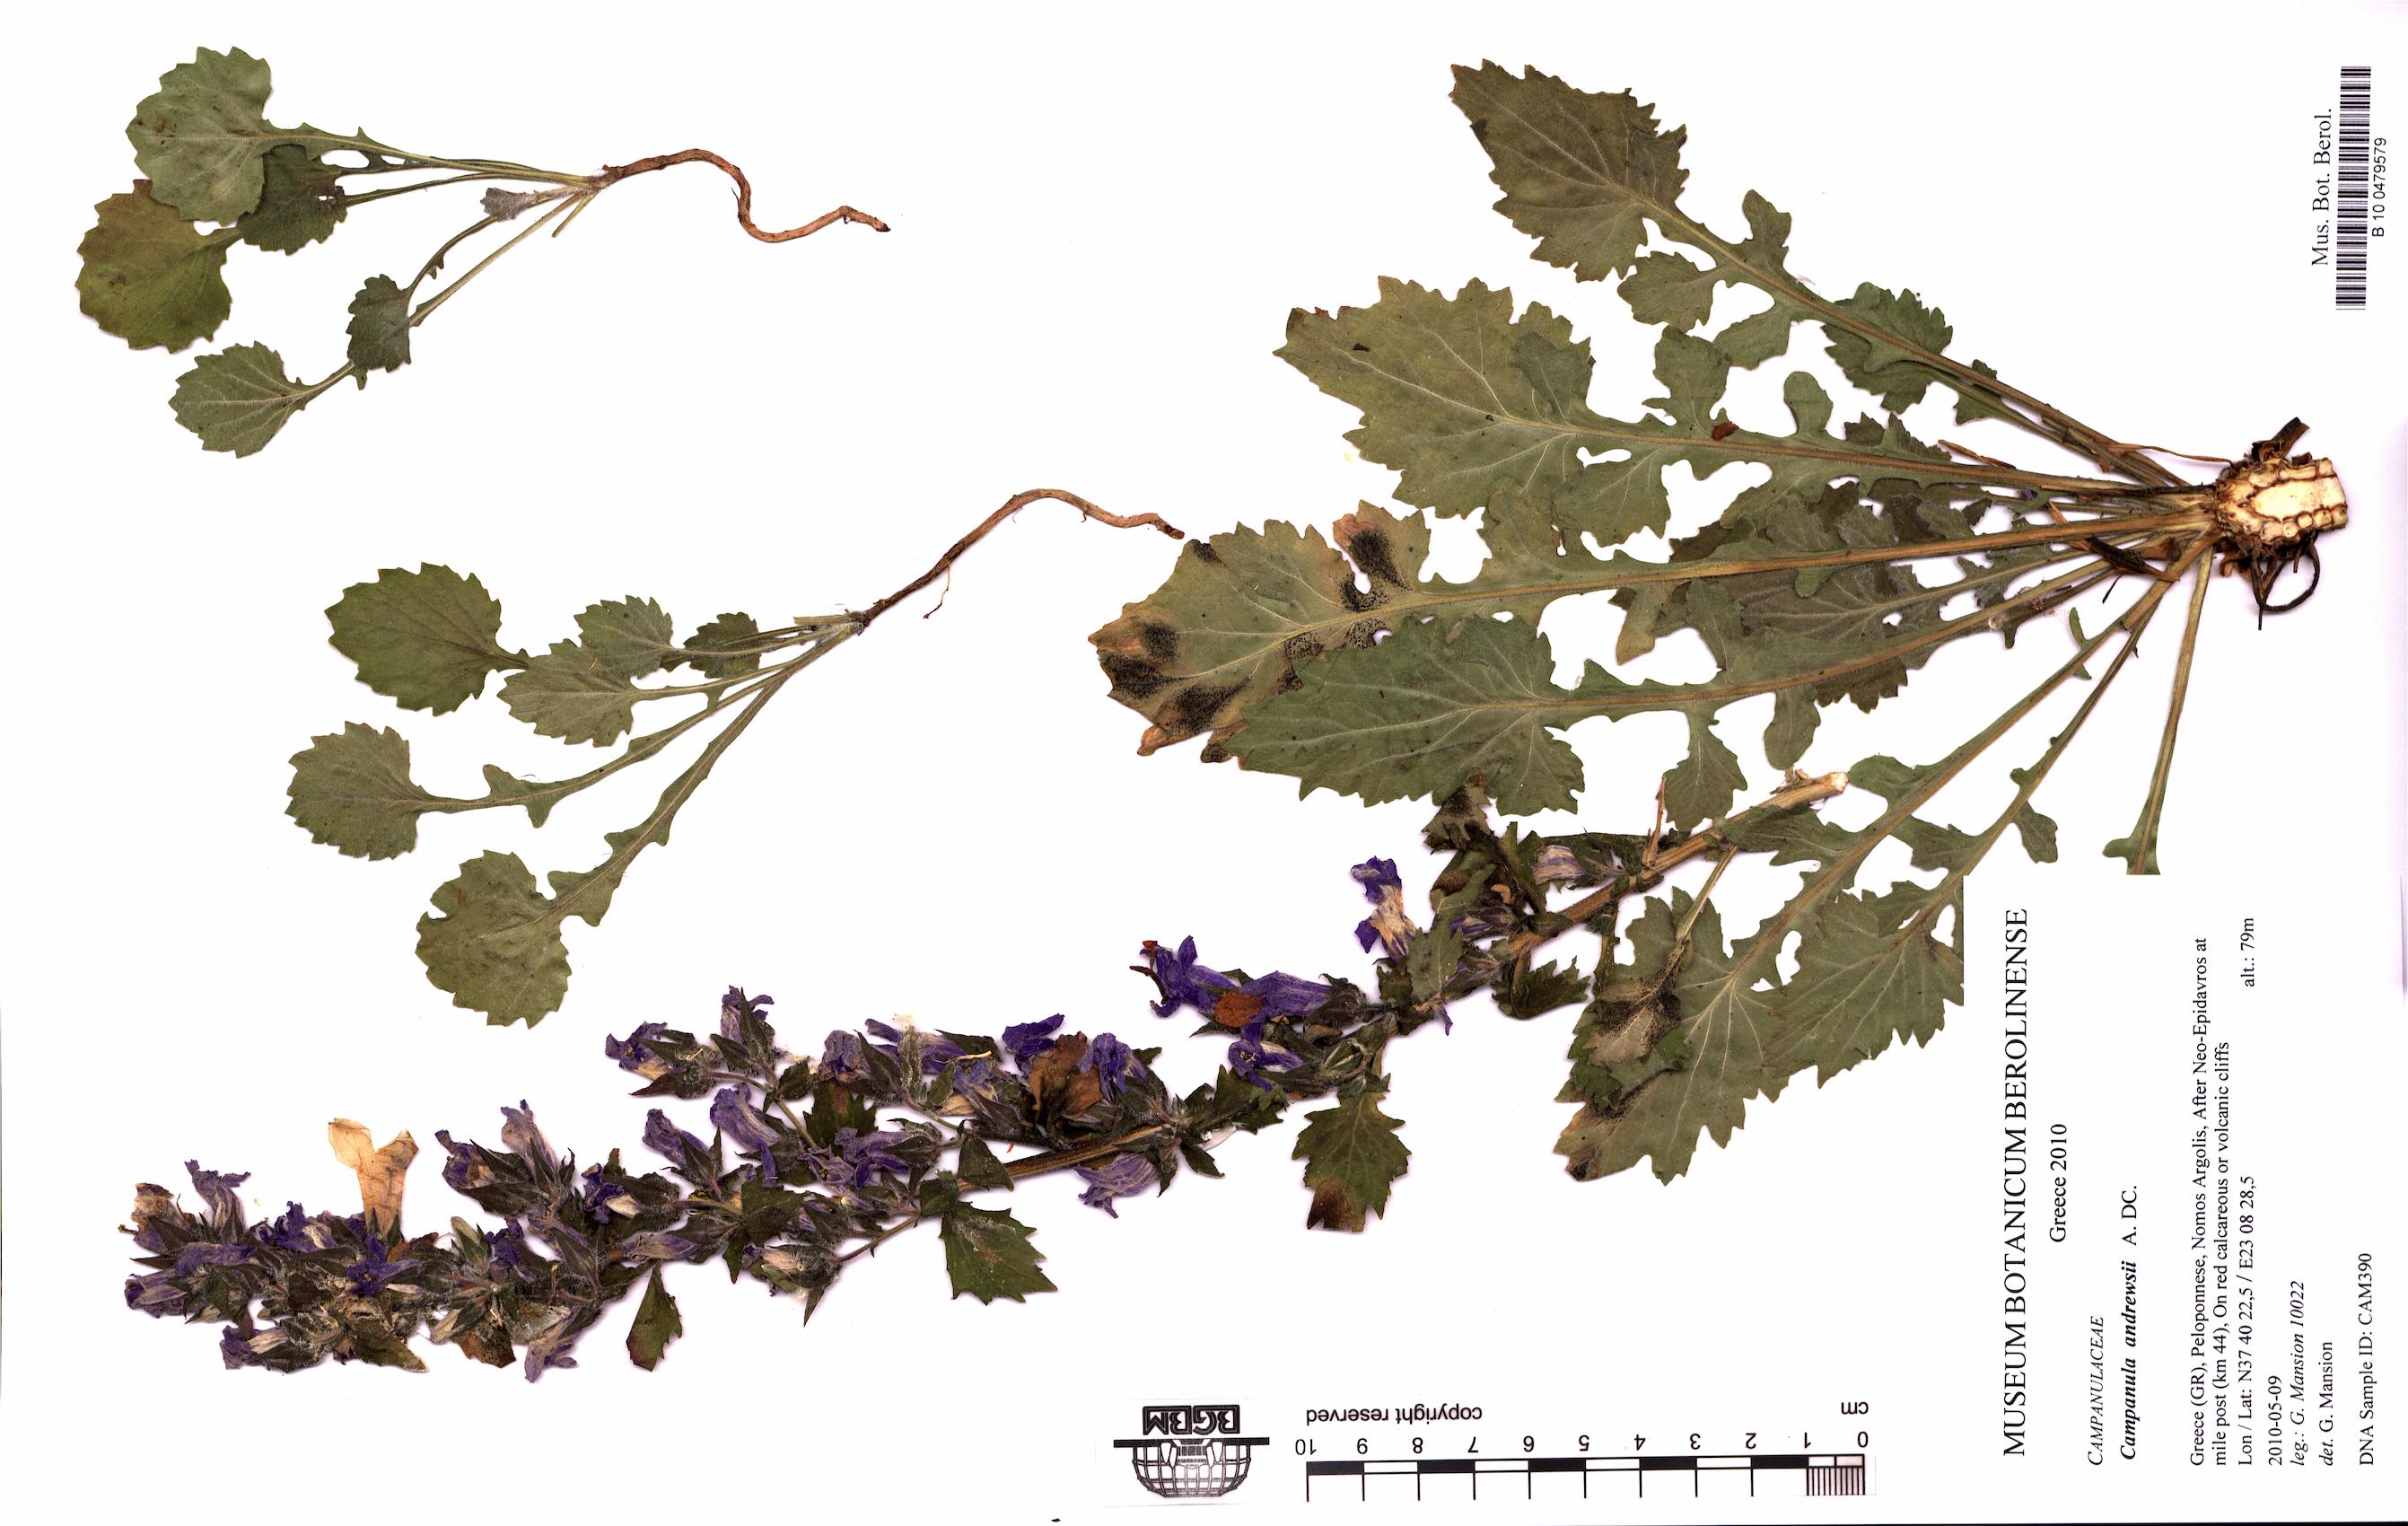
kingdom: Plantae
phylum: Tracheophyta
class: Magnoliopsida
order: Asterales
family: Campanulaceae
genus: Campanula
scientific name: Campanula andrewsii
